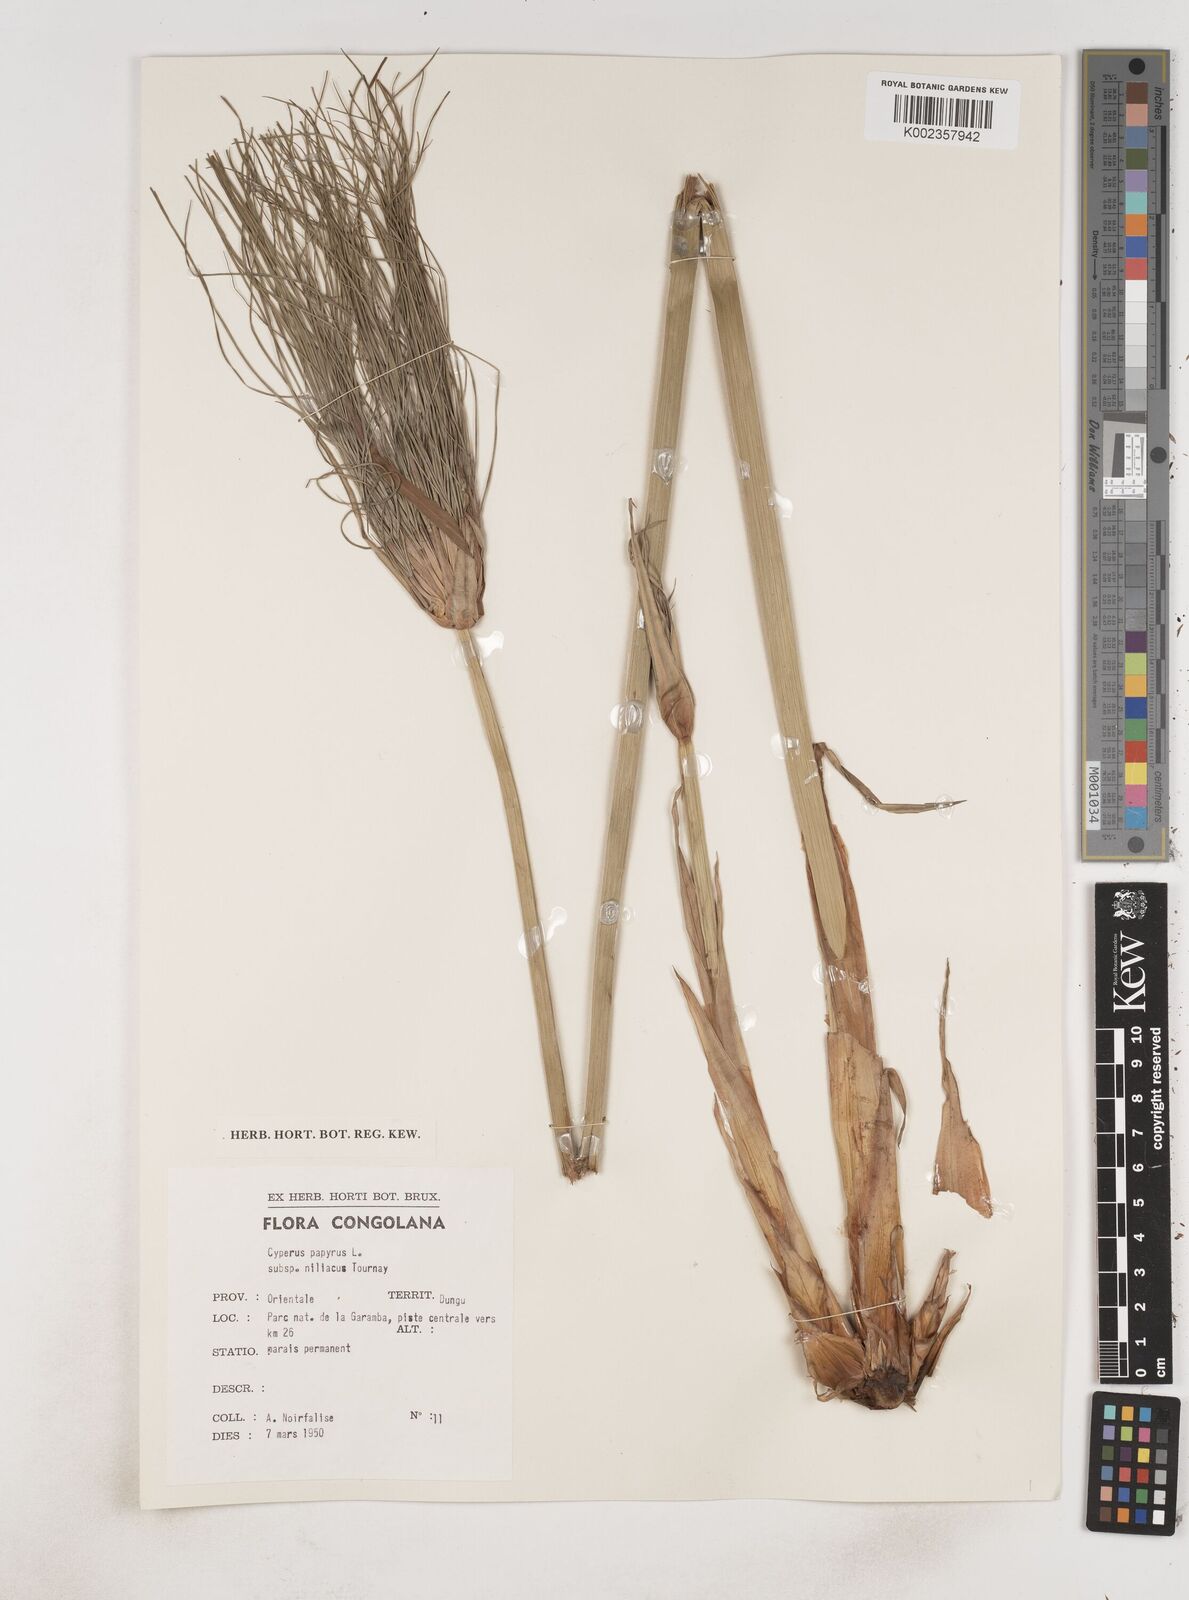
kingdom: Plantae
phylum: Tracheophyta
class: Liliopsida
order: Poales
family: Cyperaceae
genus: Cyperus
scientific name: Cyperus papyrus
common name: Papyrus
